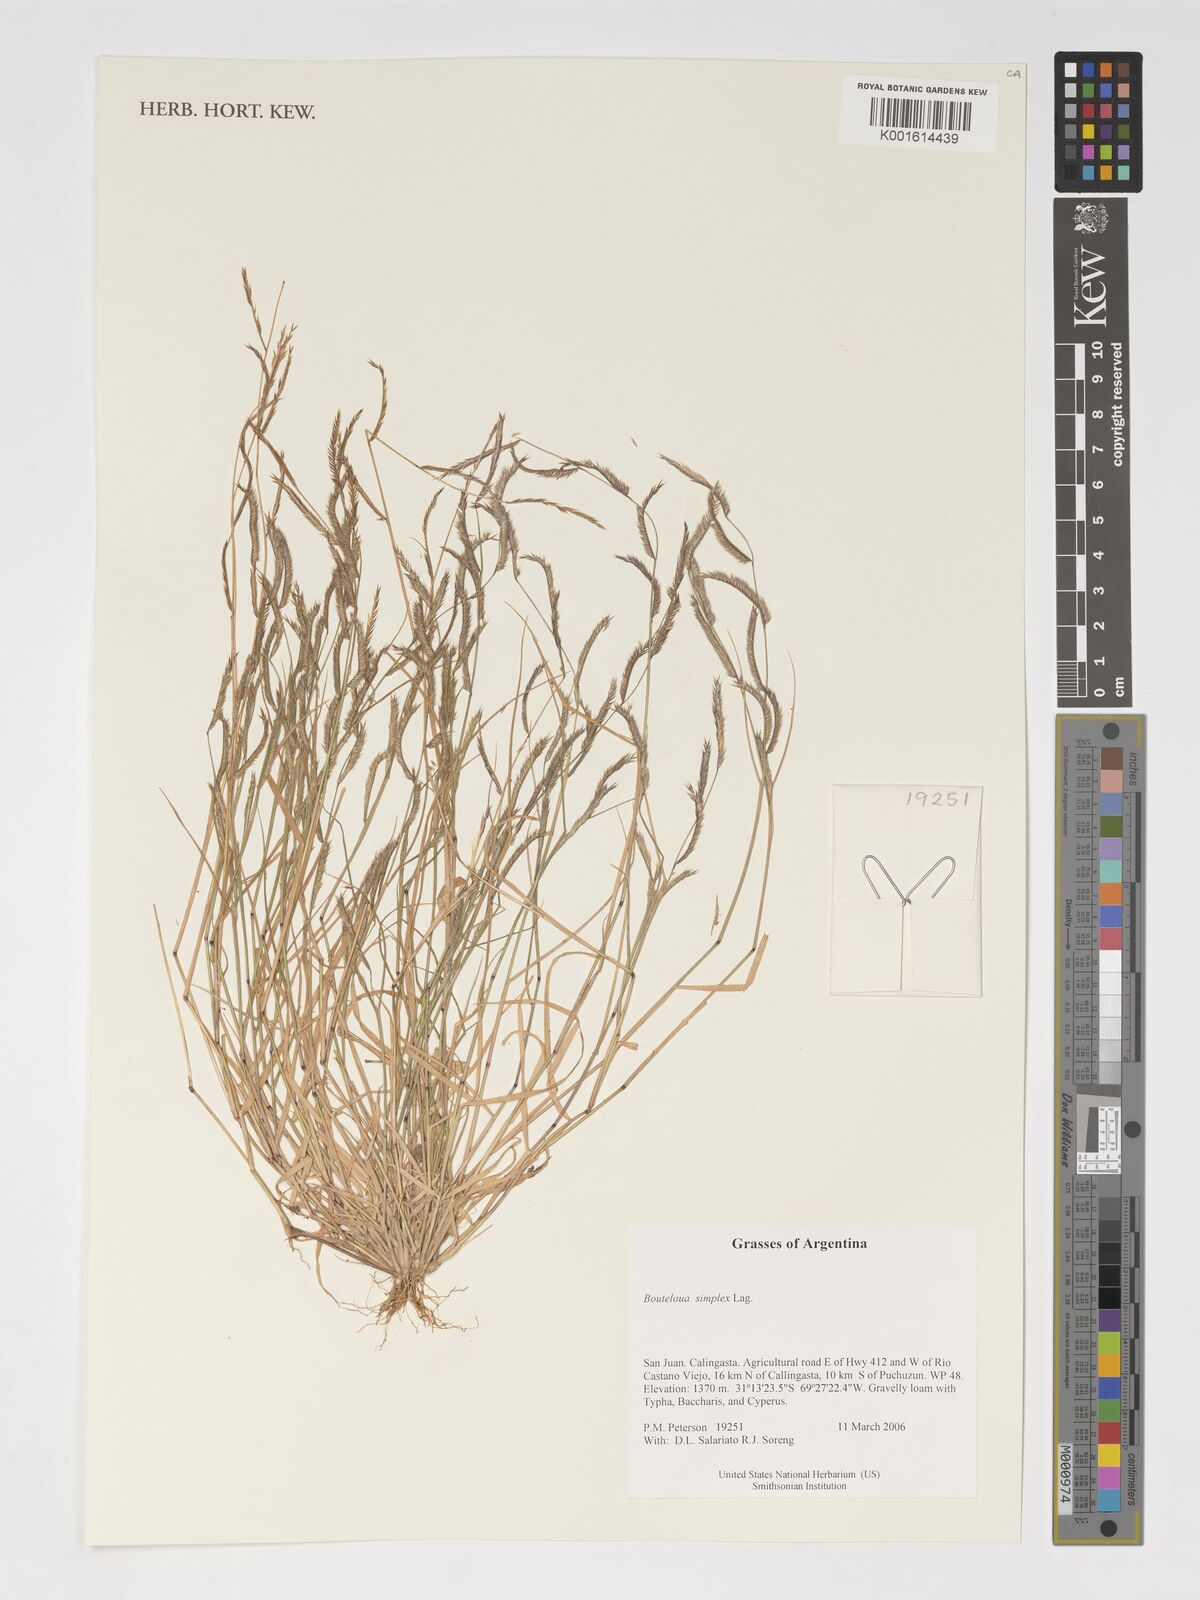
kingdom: Plantae
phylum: Tracheophyta
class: Liliopsida
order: Poales
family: Poaceae
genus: Bouteloua
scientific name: Bouteloua simplex
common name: Mat grama
